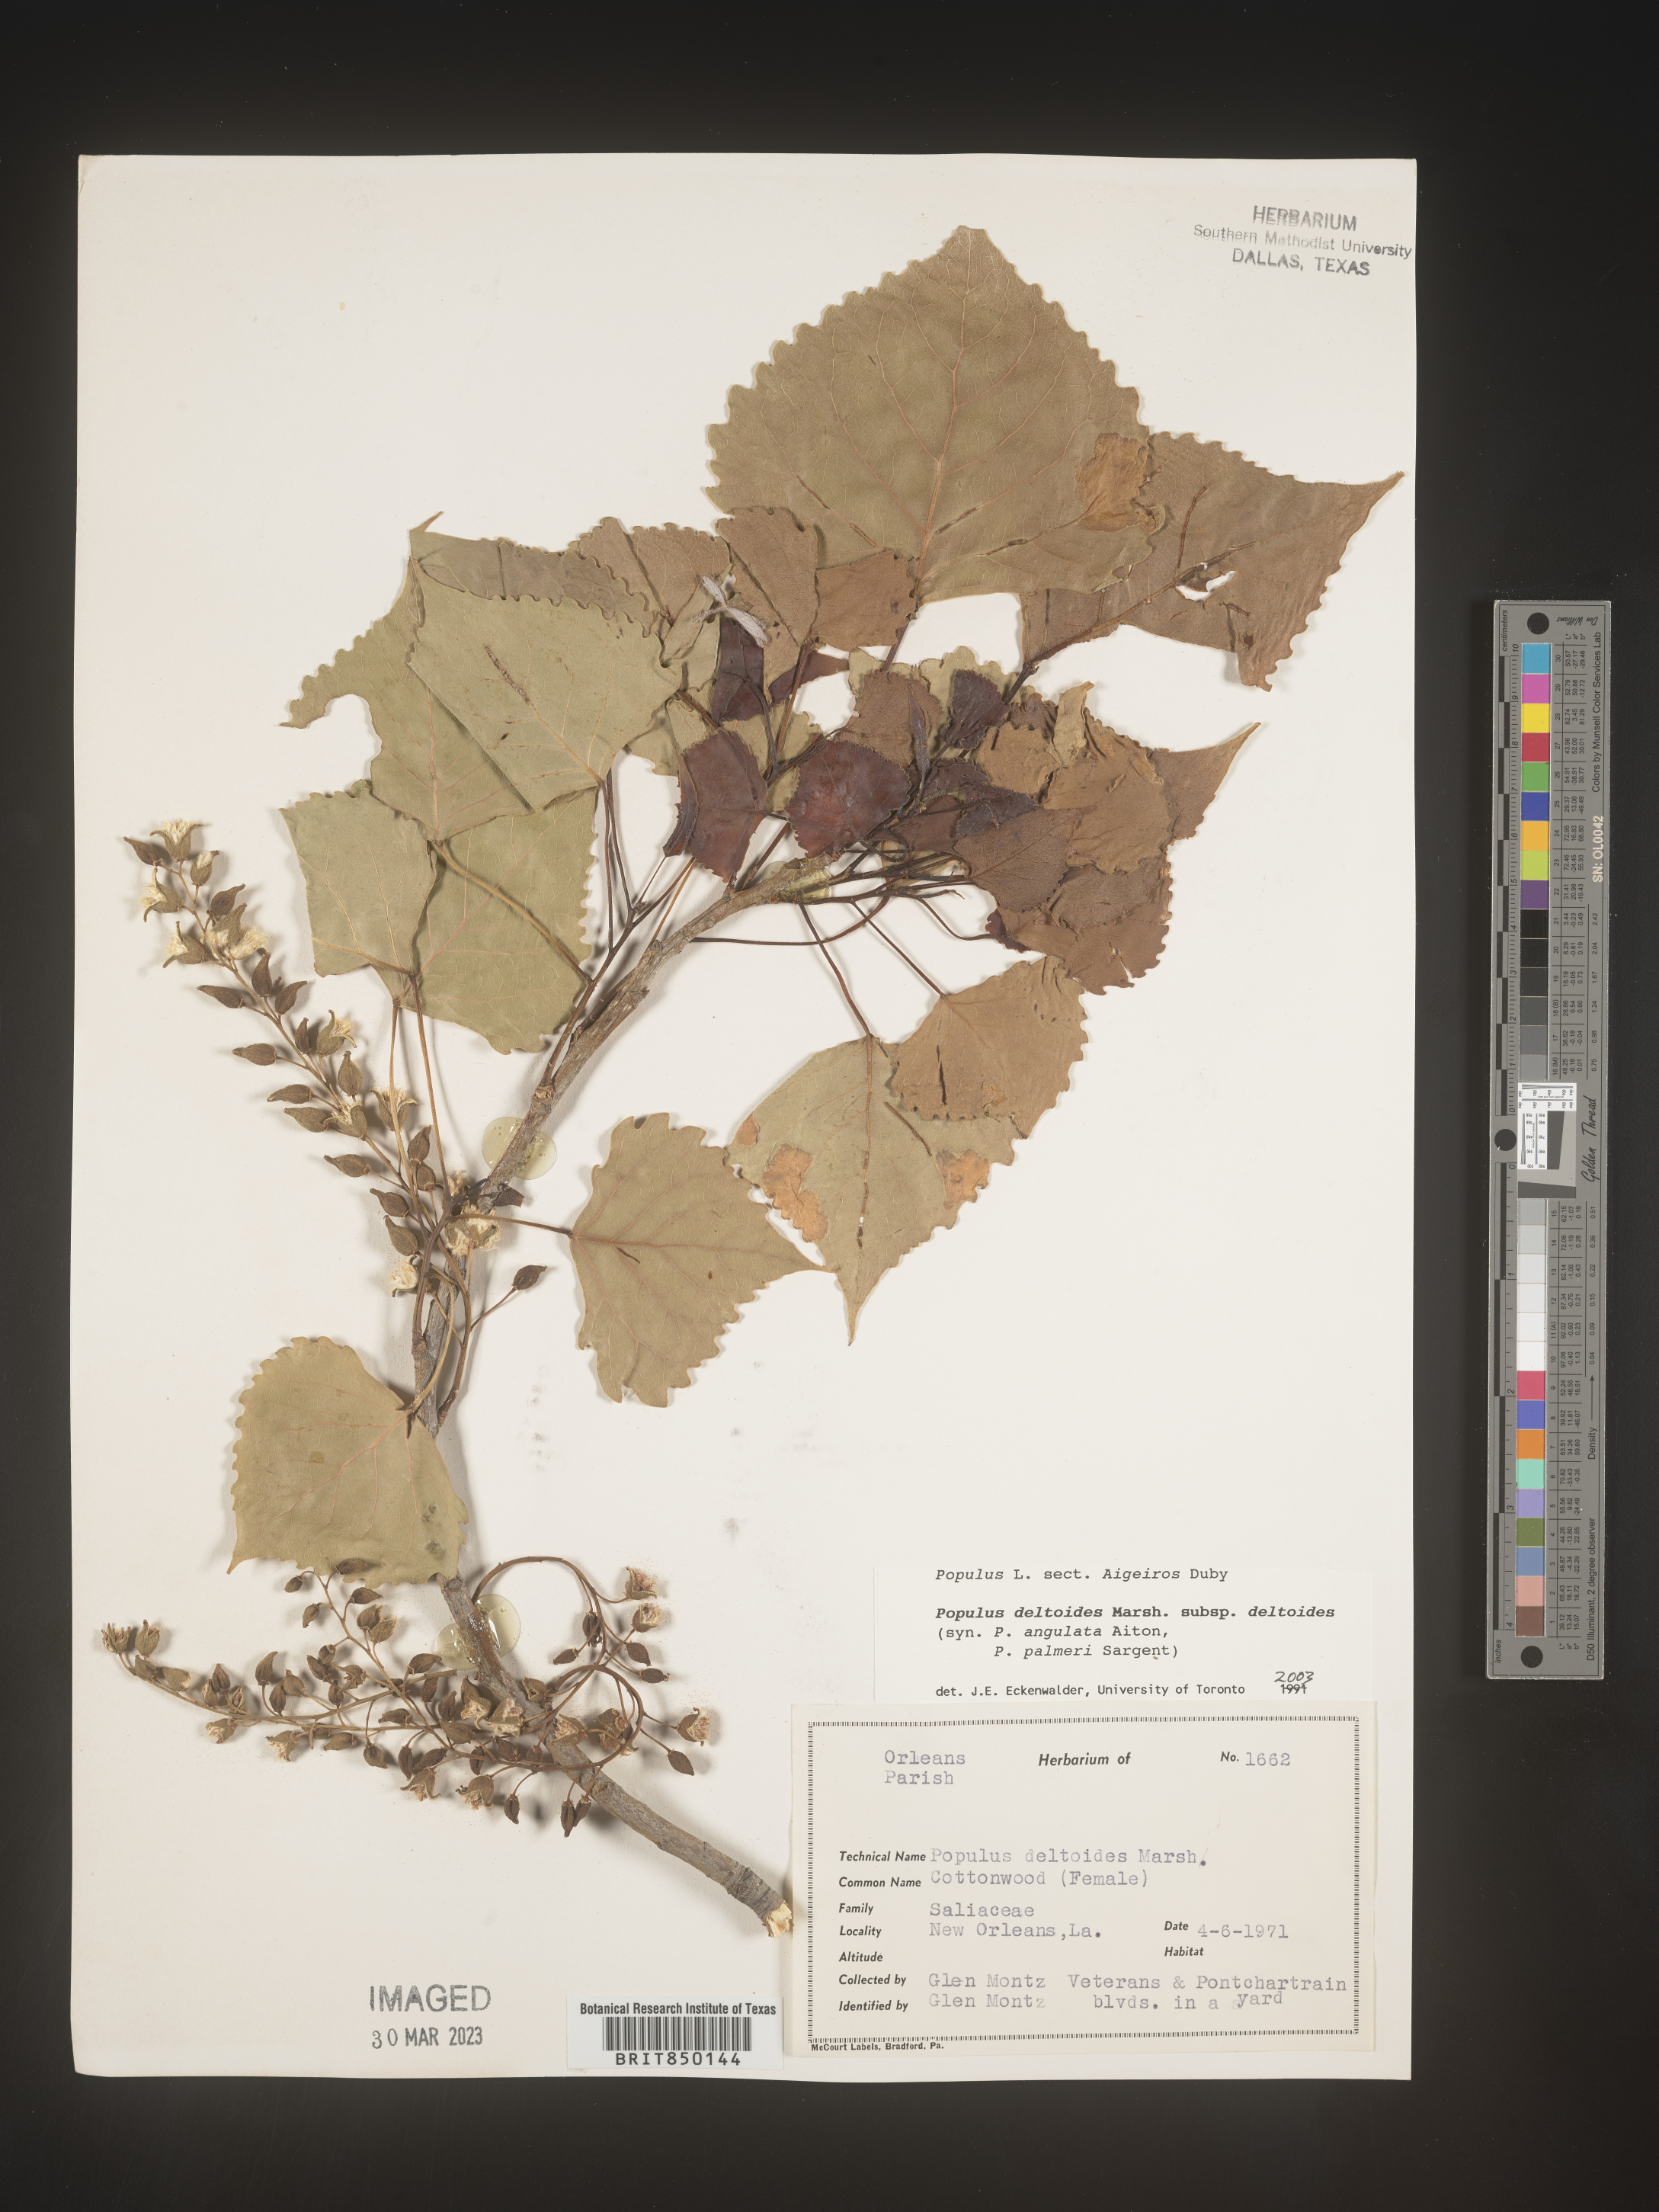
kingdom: Plantae
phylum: Tracheophyta
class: Magnoliopsida
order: Malpighiales
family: Salicaceae
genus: Populus
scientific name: Populus deltoides
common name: Eastern cottonwood
